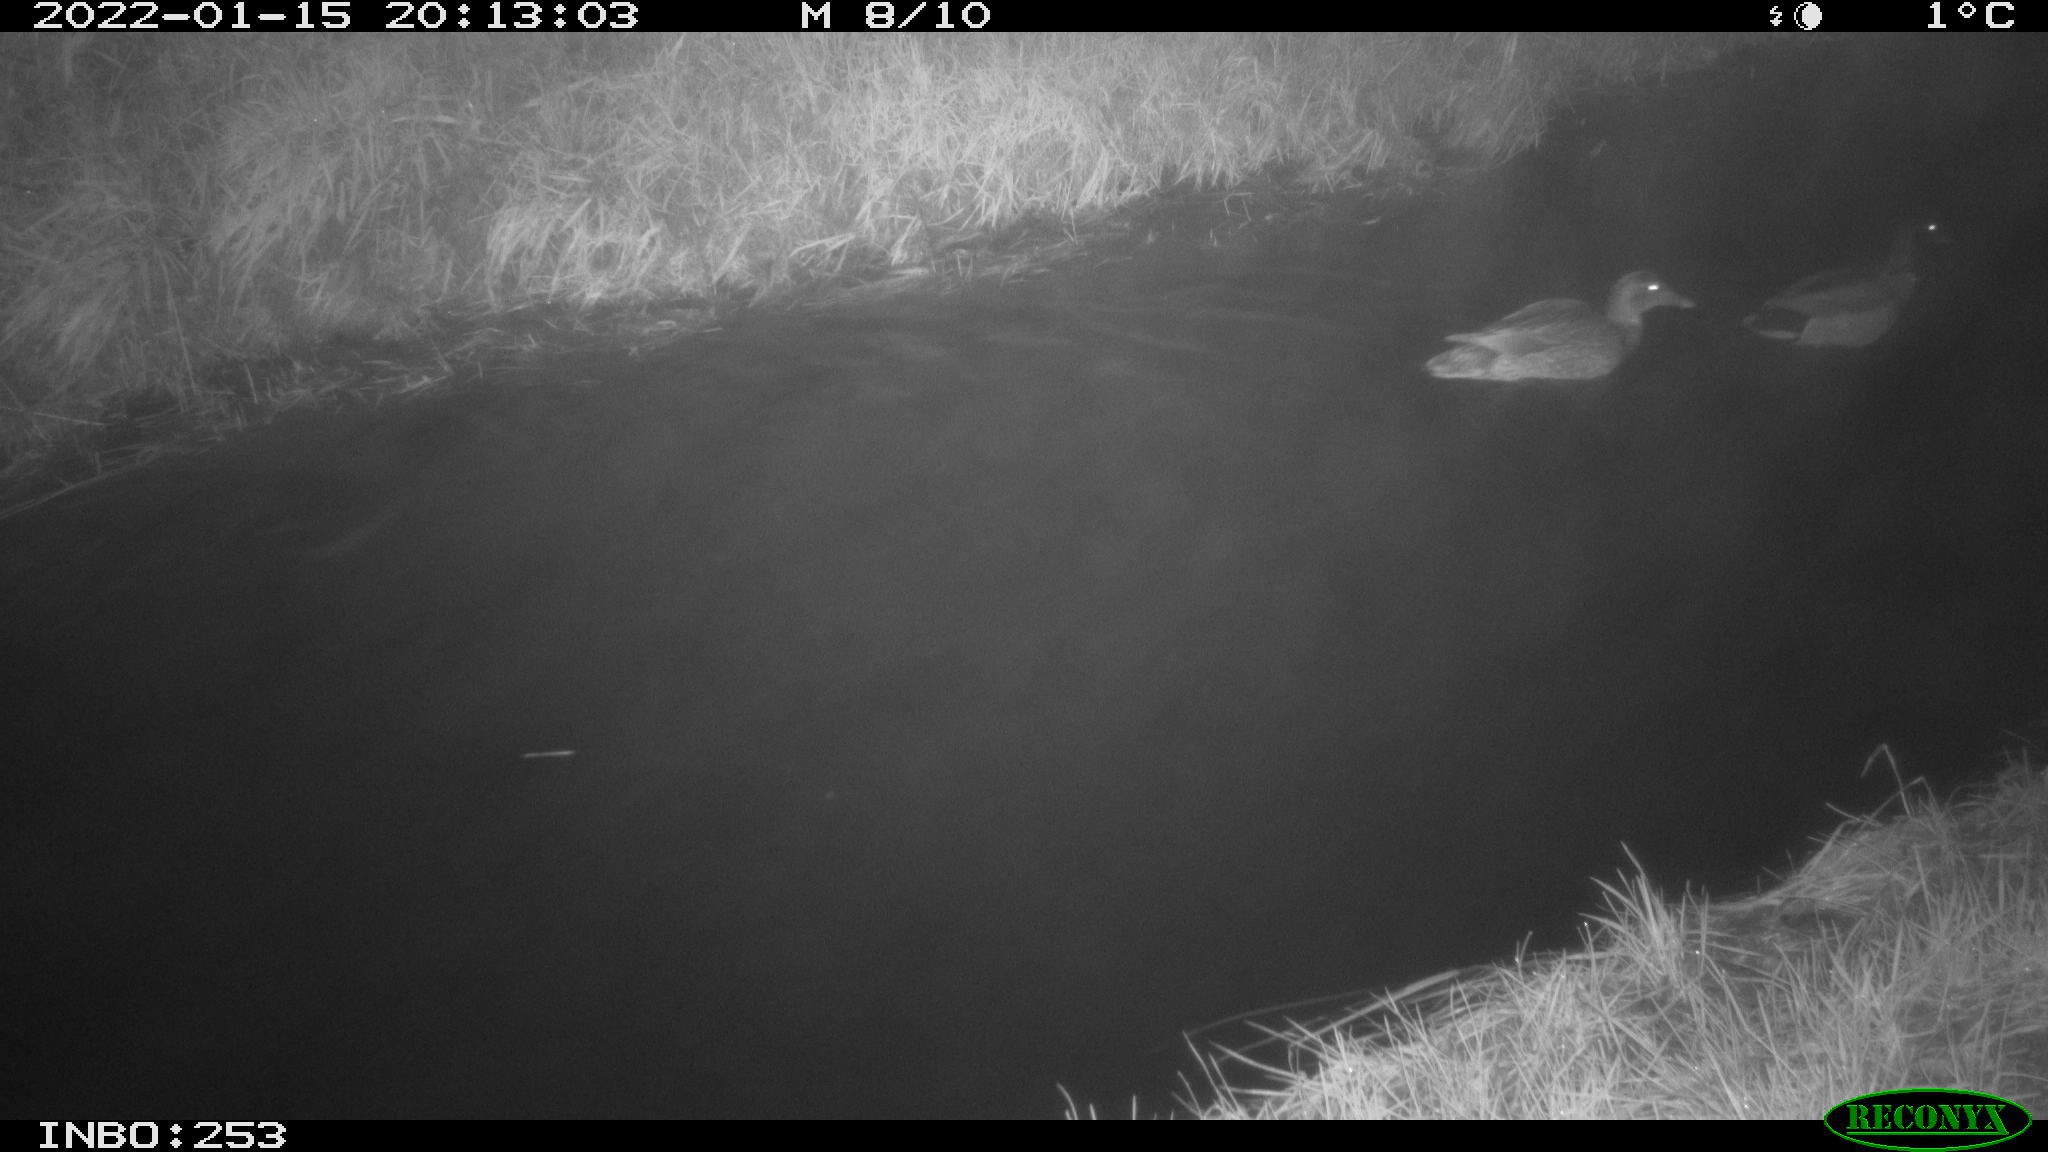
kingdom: Animalia
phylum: Chordata
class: Aves
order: Anseriformes
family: Anatidae
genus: Anas
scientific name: Anas
